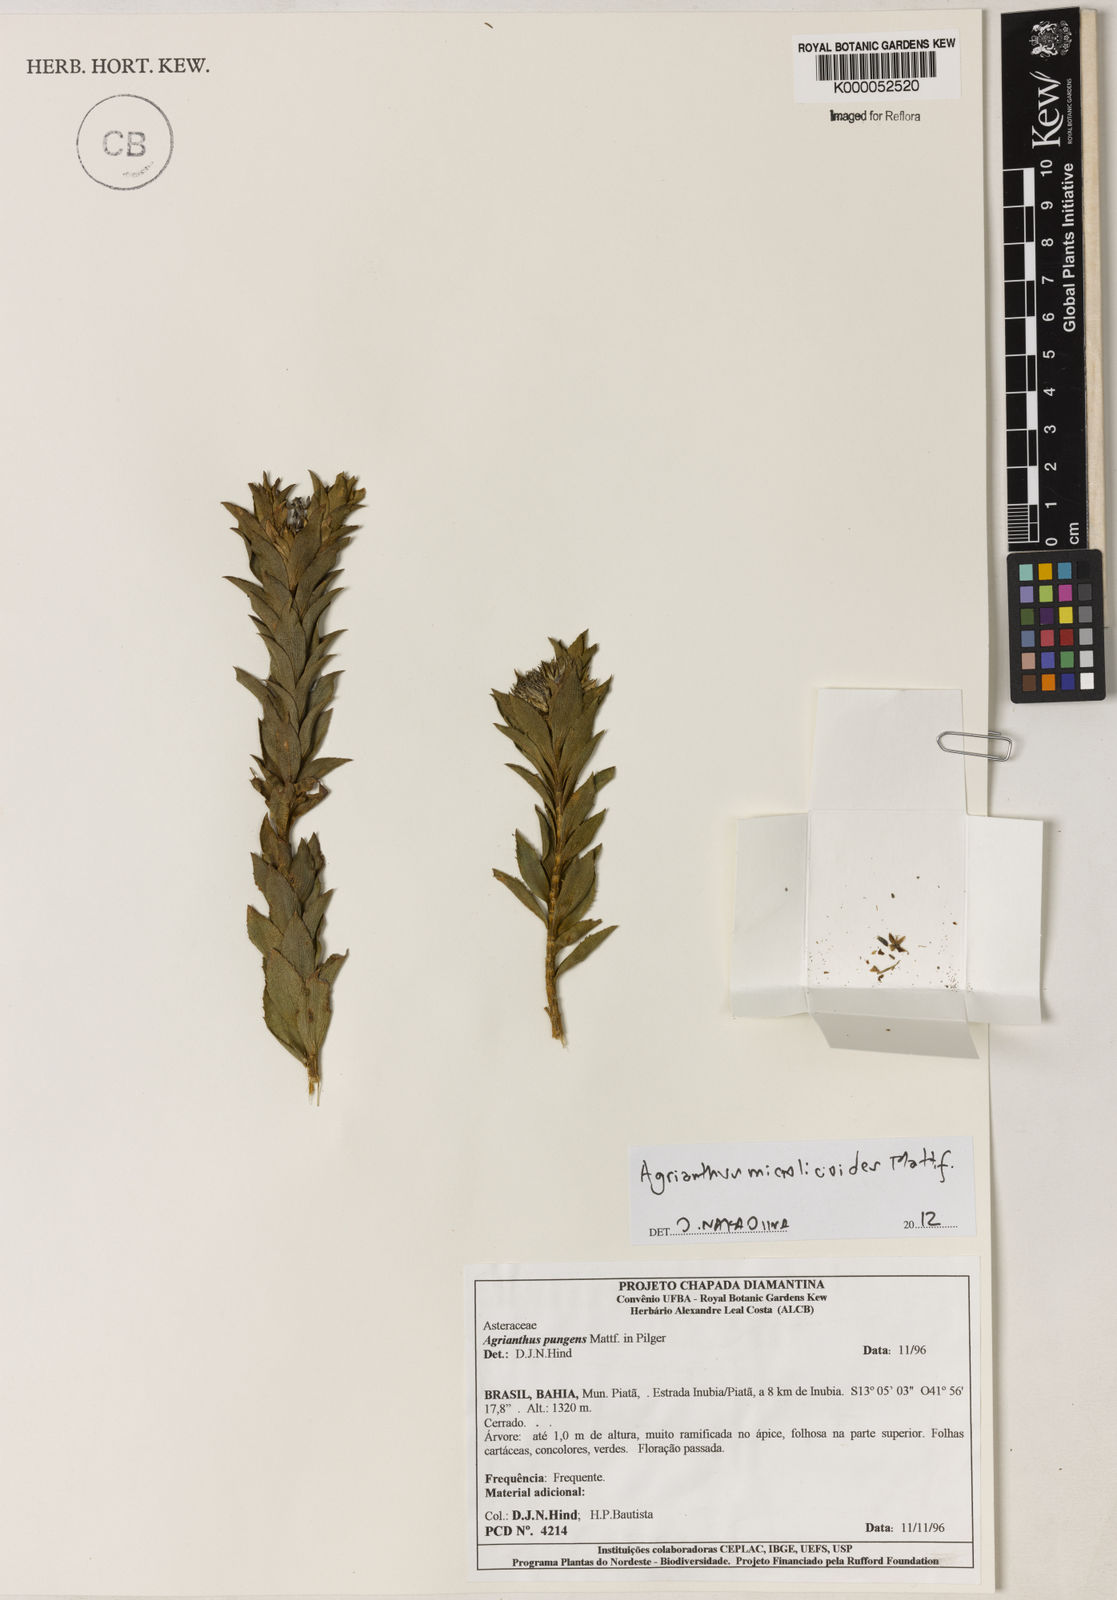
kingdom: Plantae
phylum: Tracheophyta
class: Magnoliopsida
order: Asterales
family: Asteraceae
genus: Agrianthus
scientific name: Agrianthus pungens
